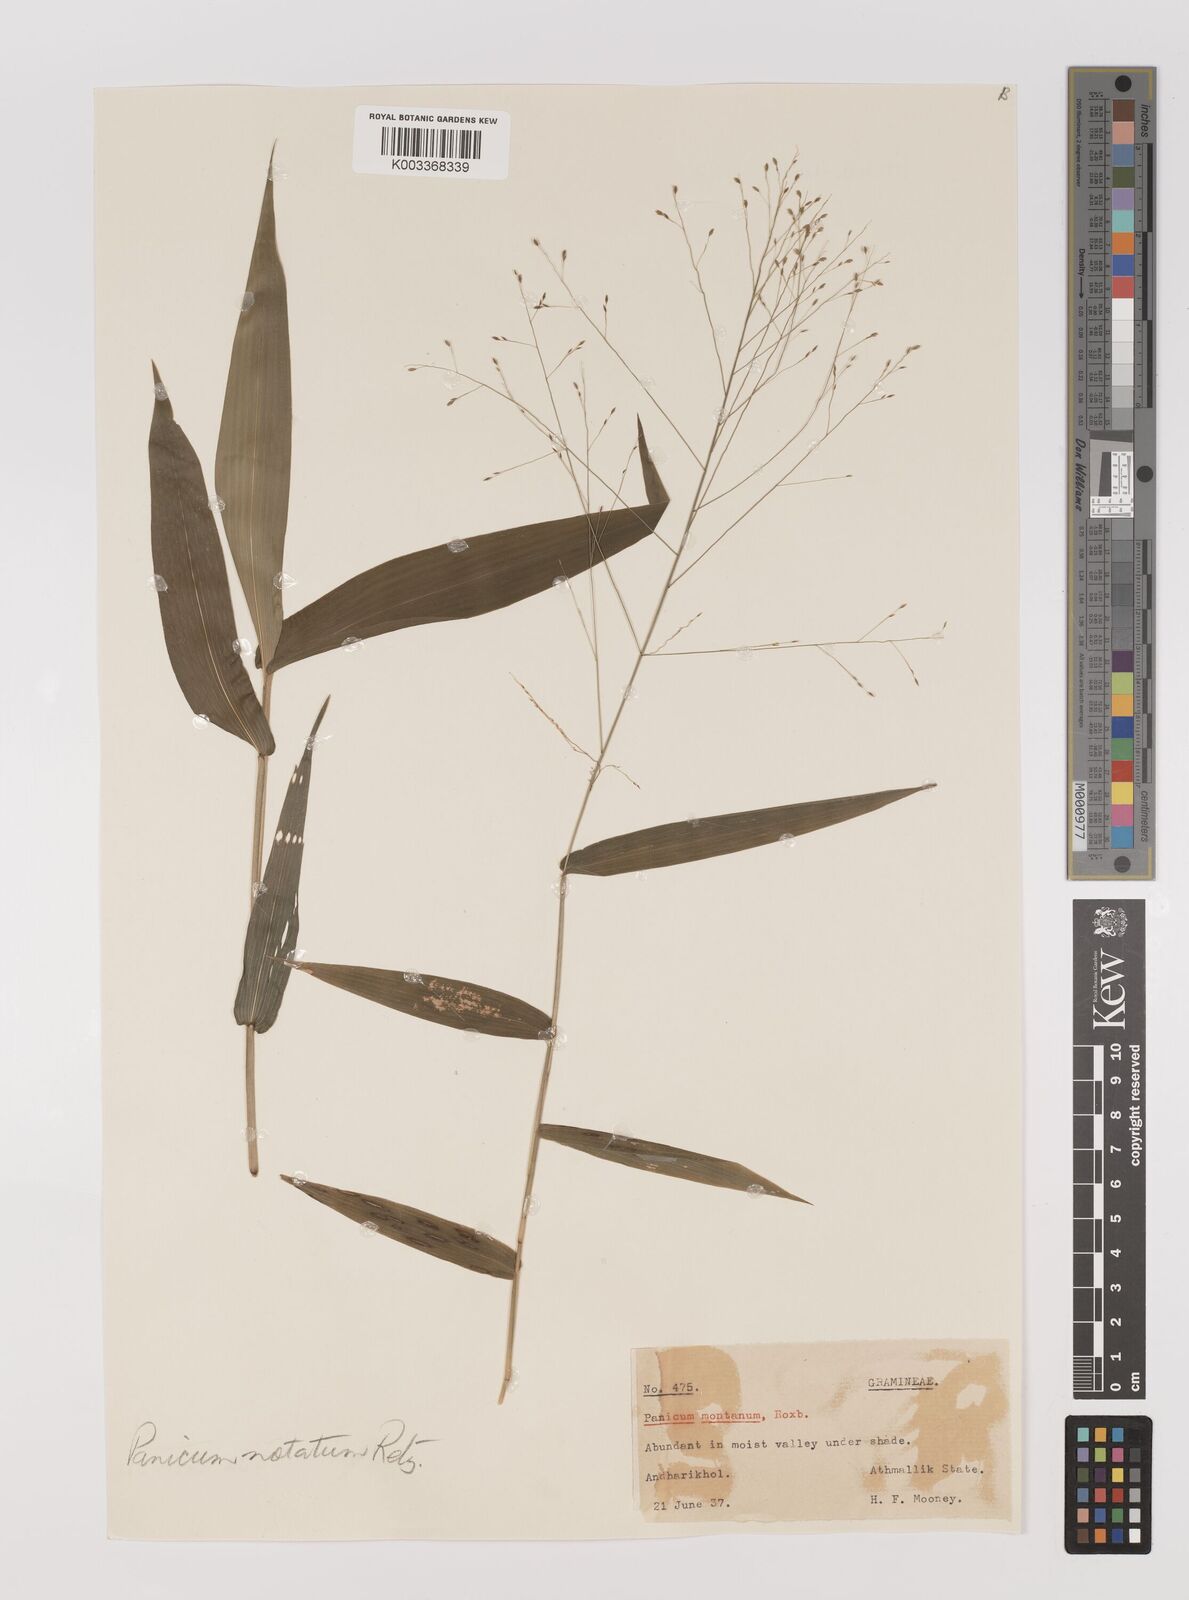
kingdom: Plantae
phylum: Tracheophyta
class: Liliopsida
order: Poales
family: Poaceae
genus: Panicum
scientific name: Panicum notatum
